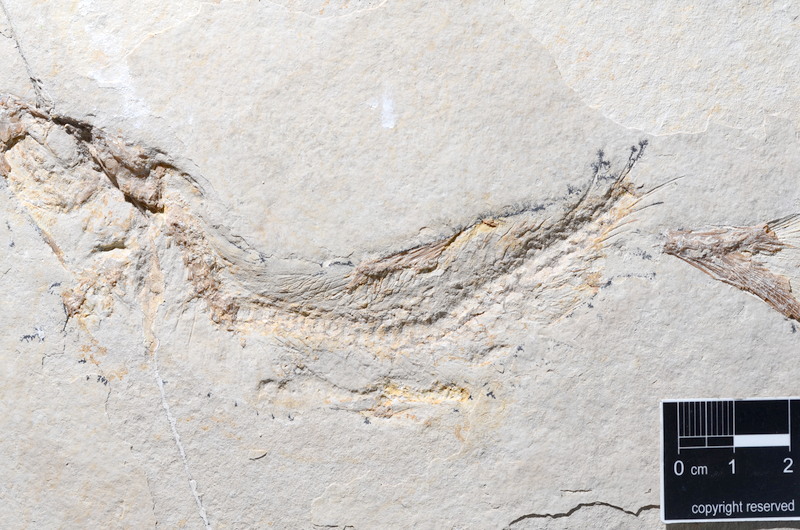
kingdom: Animalia
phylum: Chordata
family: Ascalaboidae
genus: Tharsis
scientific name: Tharsis dubius
